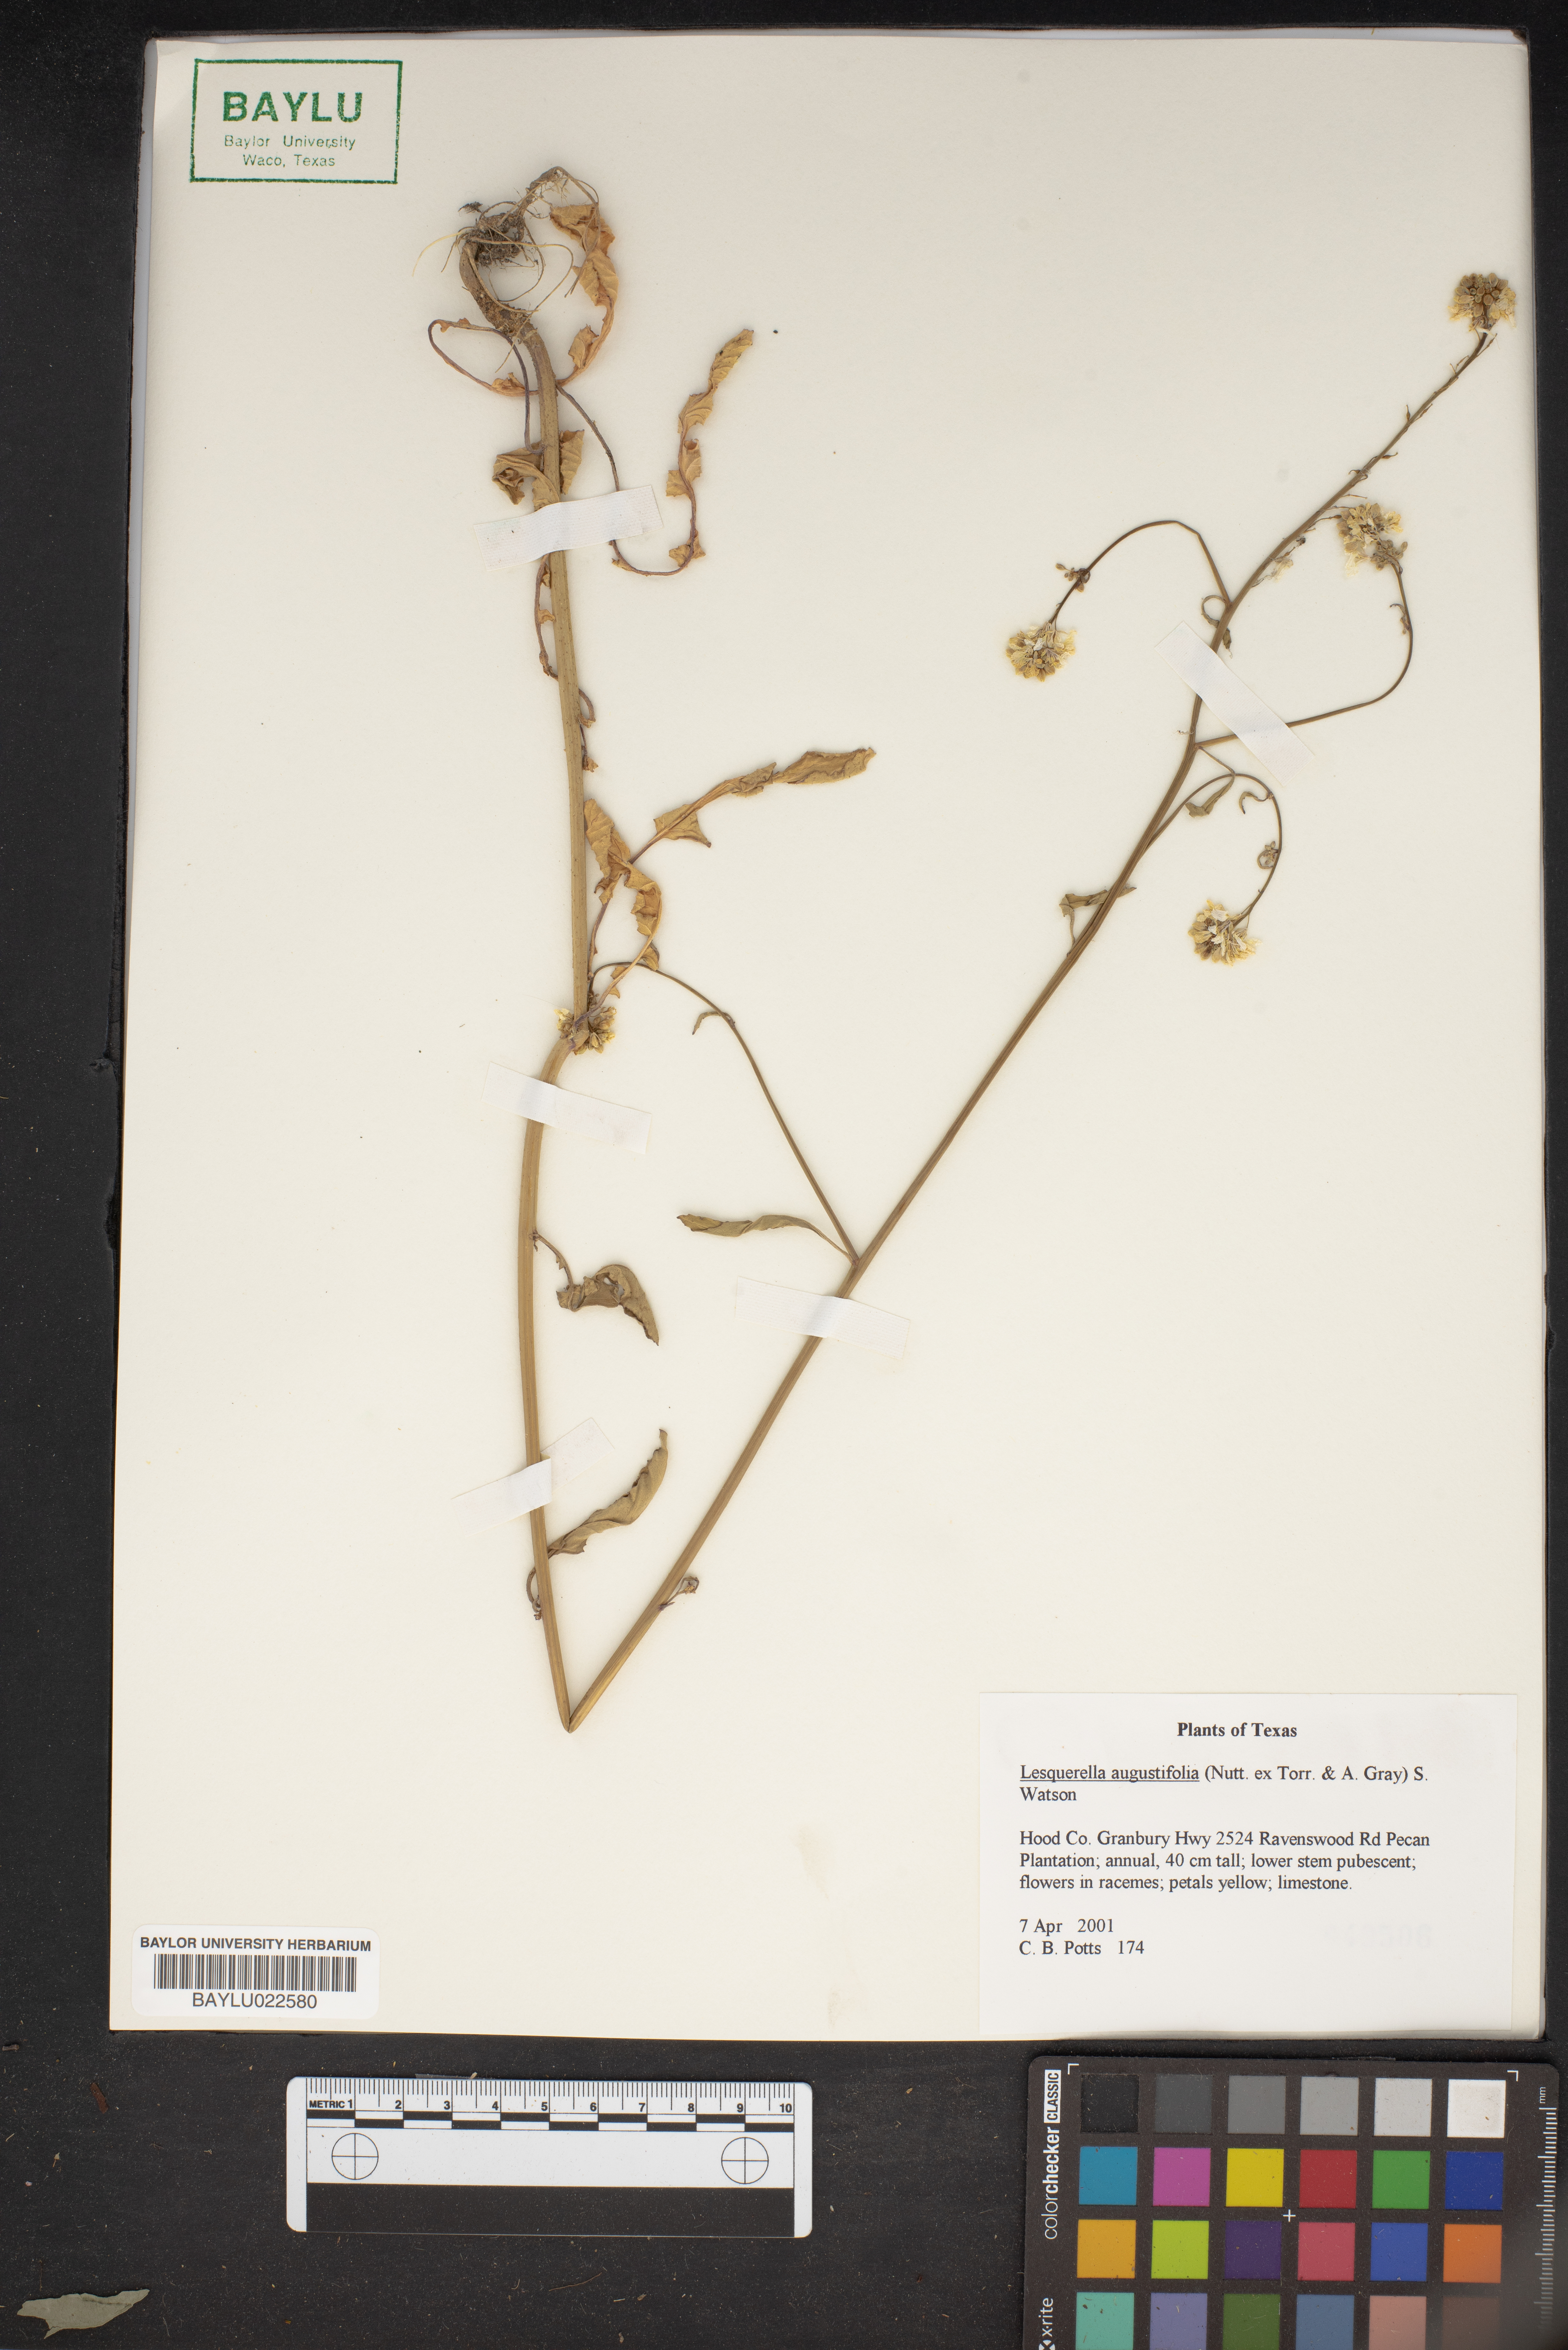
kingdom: Plantae
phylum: Tracheophyta
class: Magnoliopsida
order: Brassicales
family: Brassicaceae
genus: Physaria
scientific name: Physaria angustifolia
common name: Threadleaf bladderpod
